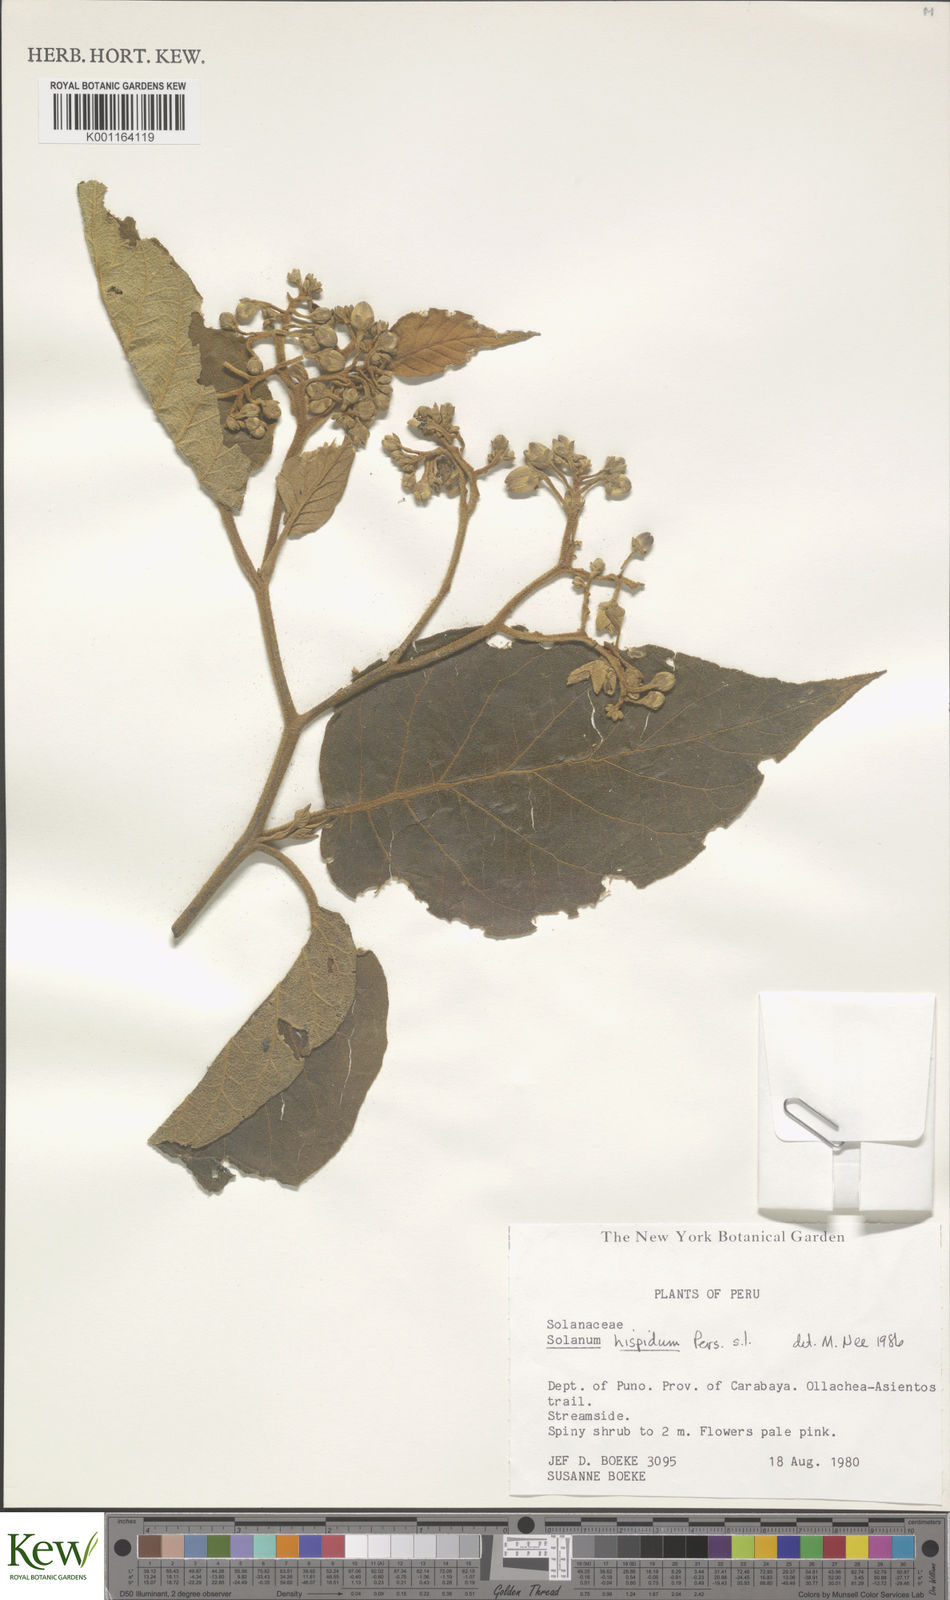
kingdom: Plantae
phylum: Tracheophyta
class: Magnoliopsida
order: Solanales
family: Solanaceae
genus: Solanum
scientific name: Solanum asperolanatum
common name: Devil's-fig
